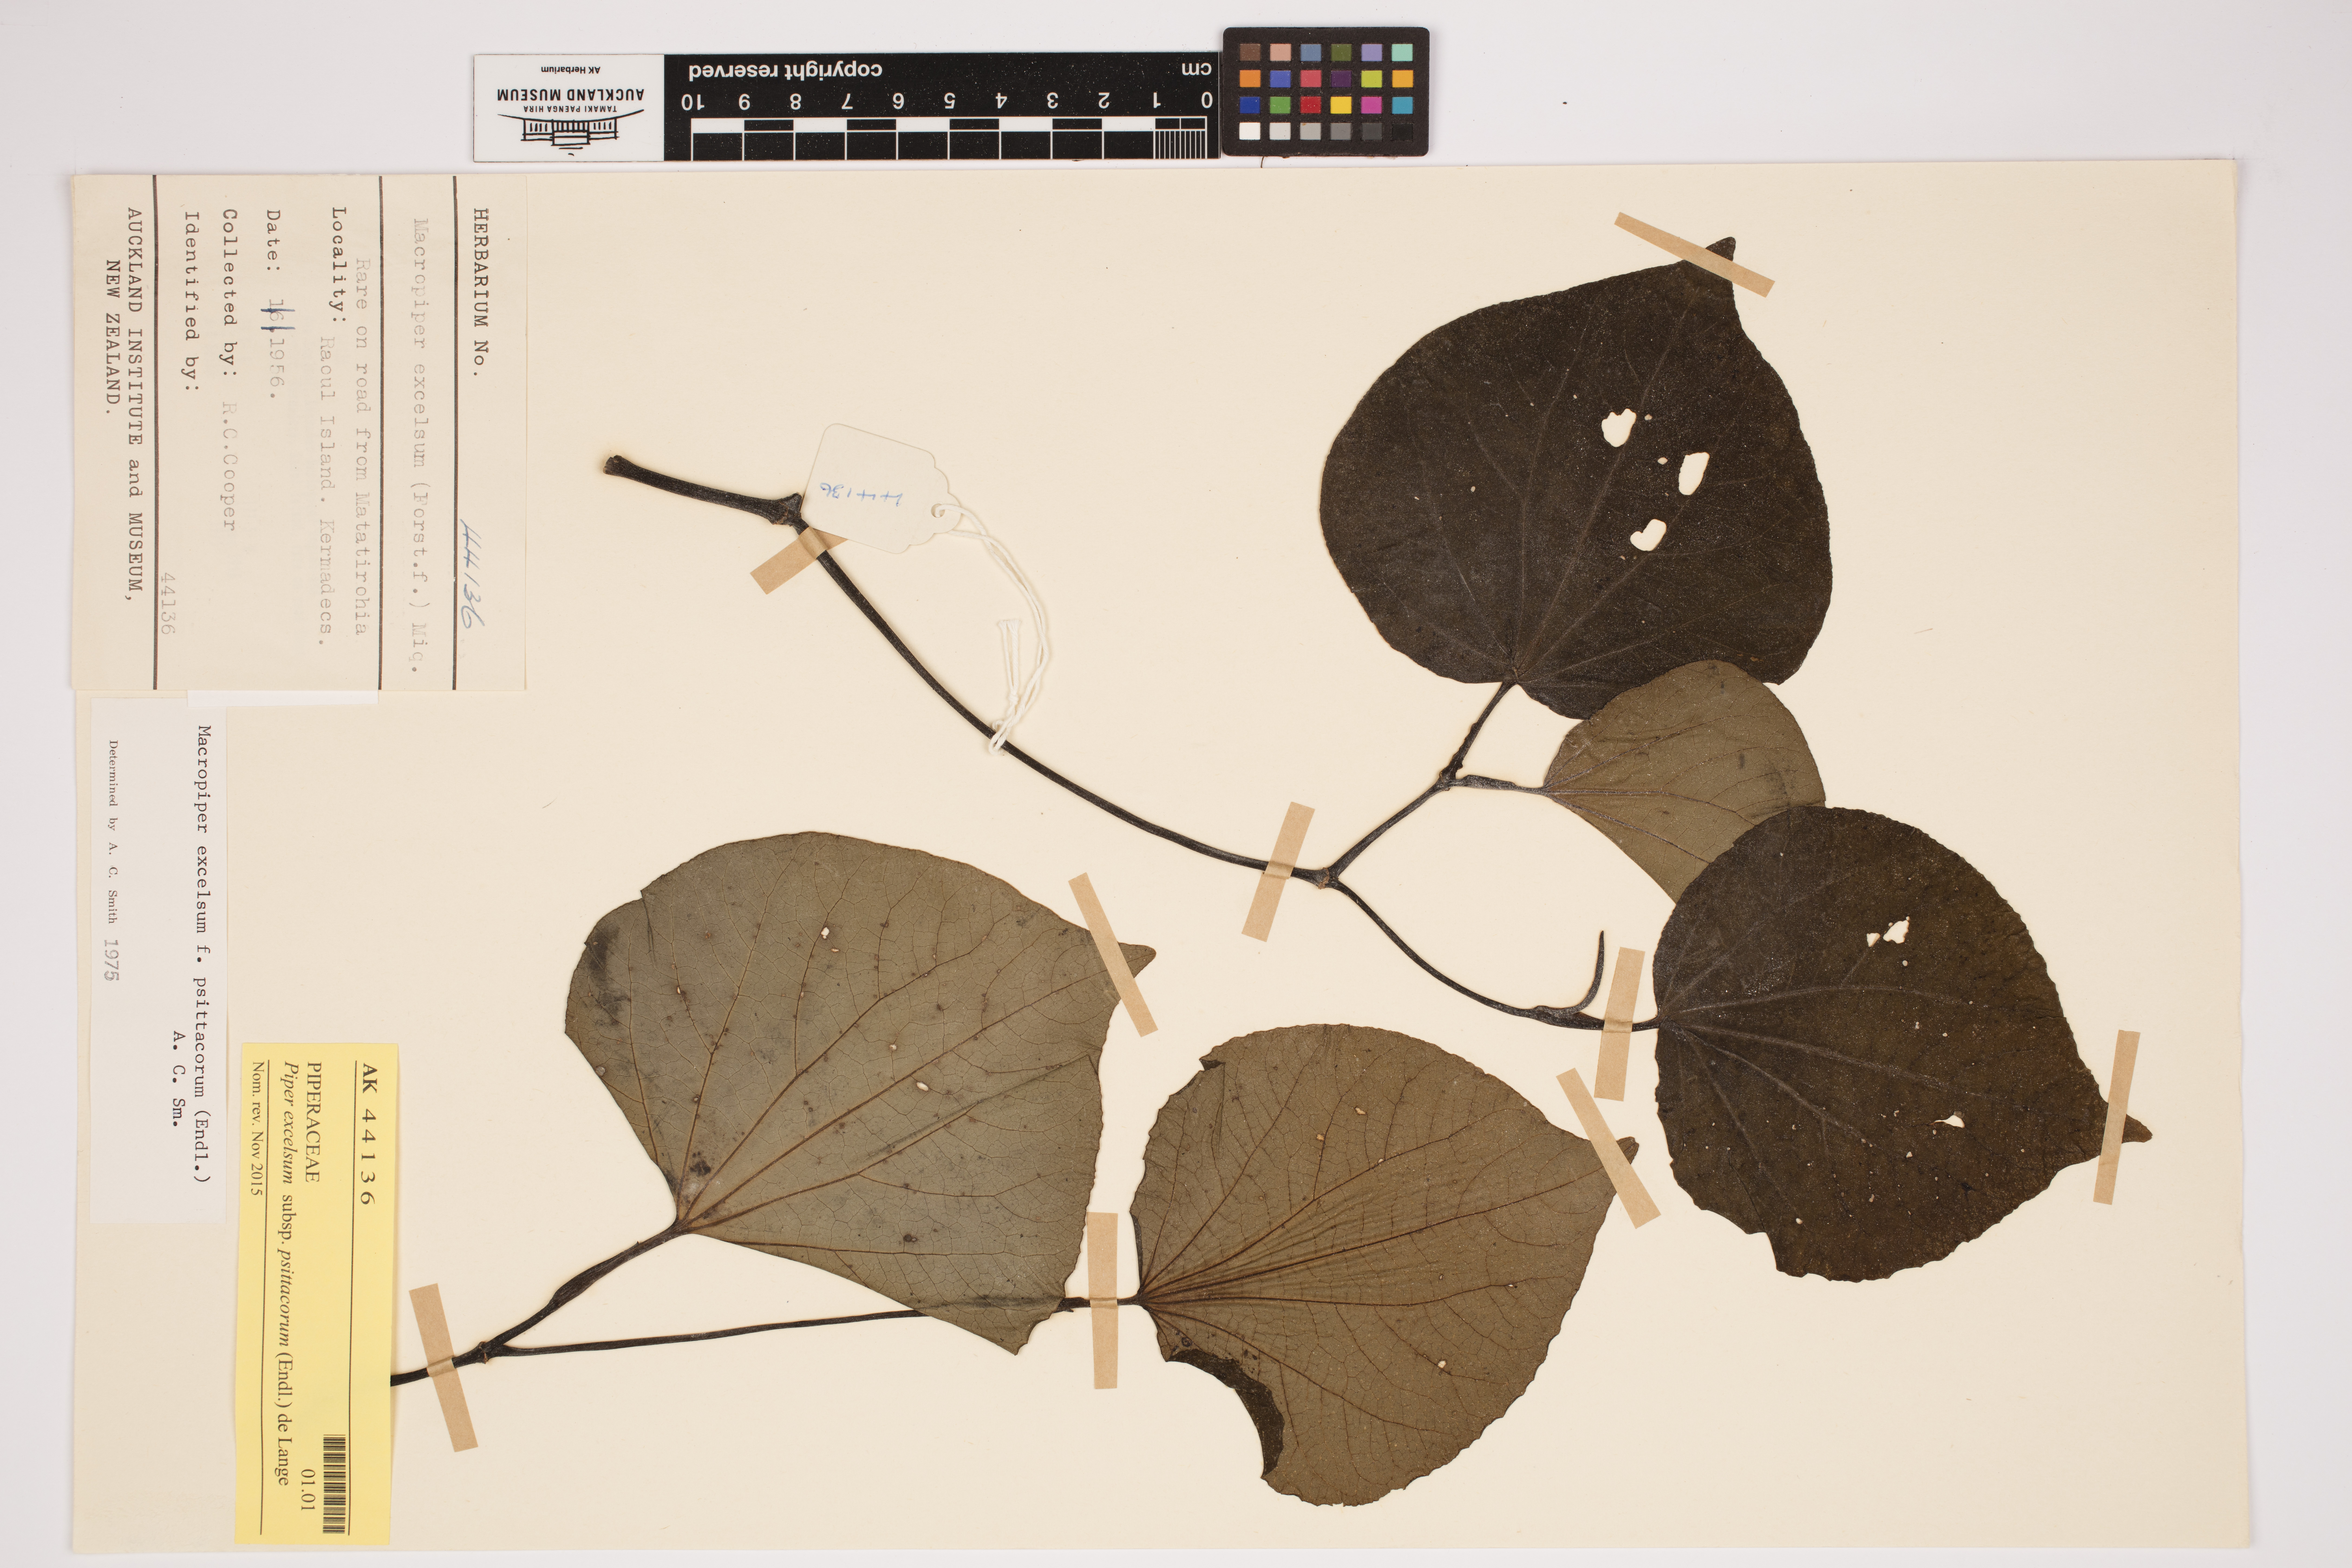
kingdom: Plantae
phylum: Tracheophyta
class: Magnoliopsida
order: Piperales
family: Piperaceae
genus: Macropiper
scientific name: Macropiper excelsum
